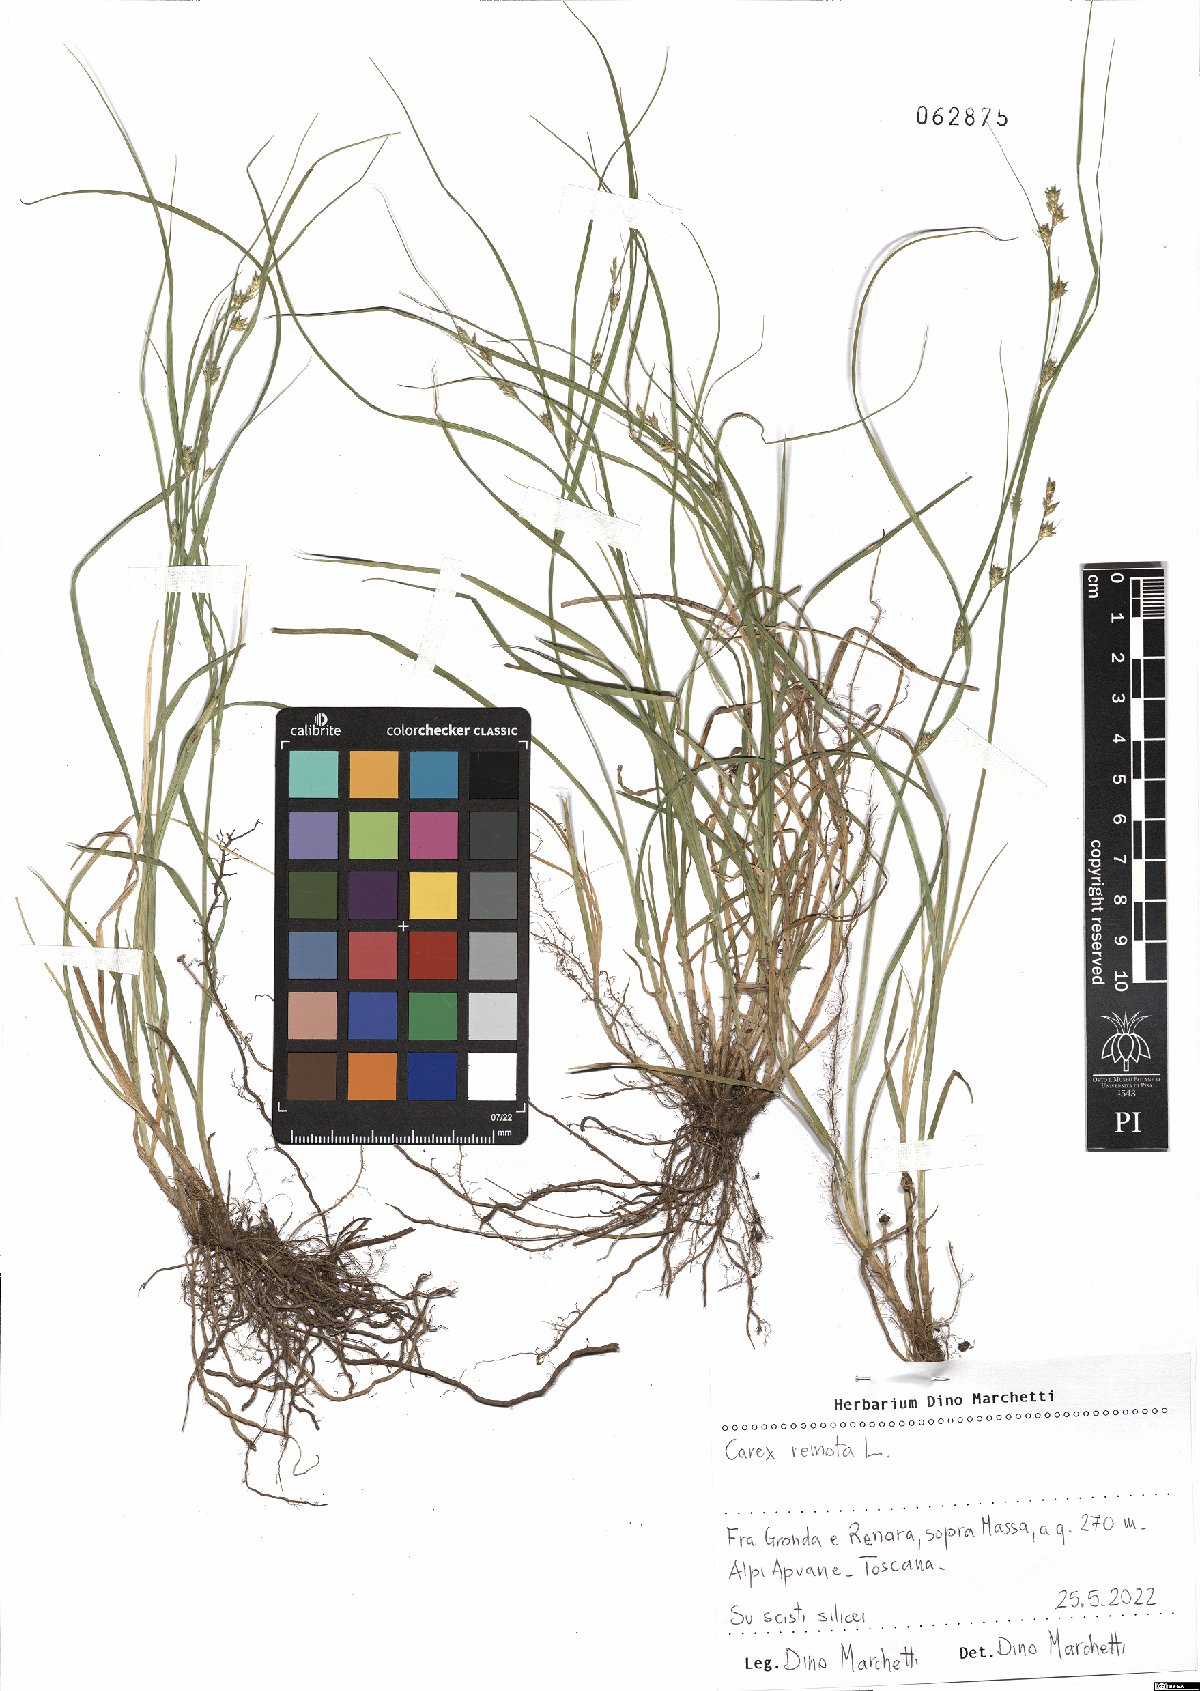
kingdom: Plantae
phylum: Tracheophyta
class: Liliopsida
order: Poales
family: Cyperaceae
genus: Carex
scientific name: Carex remota
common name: Remote sedge
